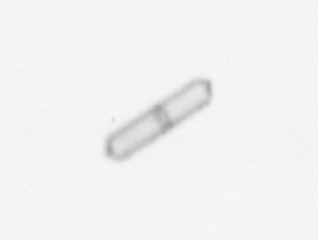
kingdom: Chromista
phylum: Ochrophyta
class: Bacillariophyceae
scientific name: Bacillariophyceae
